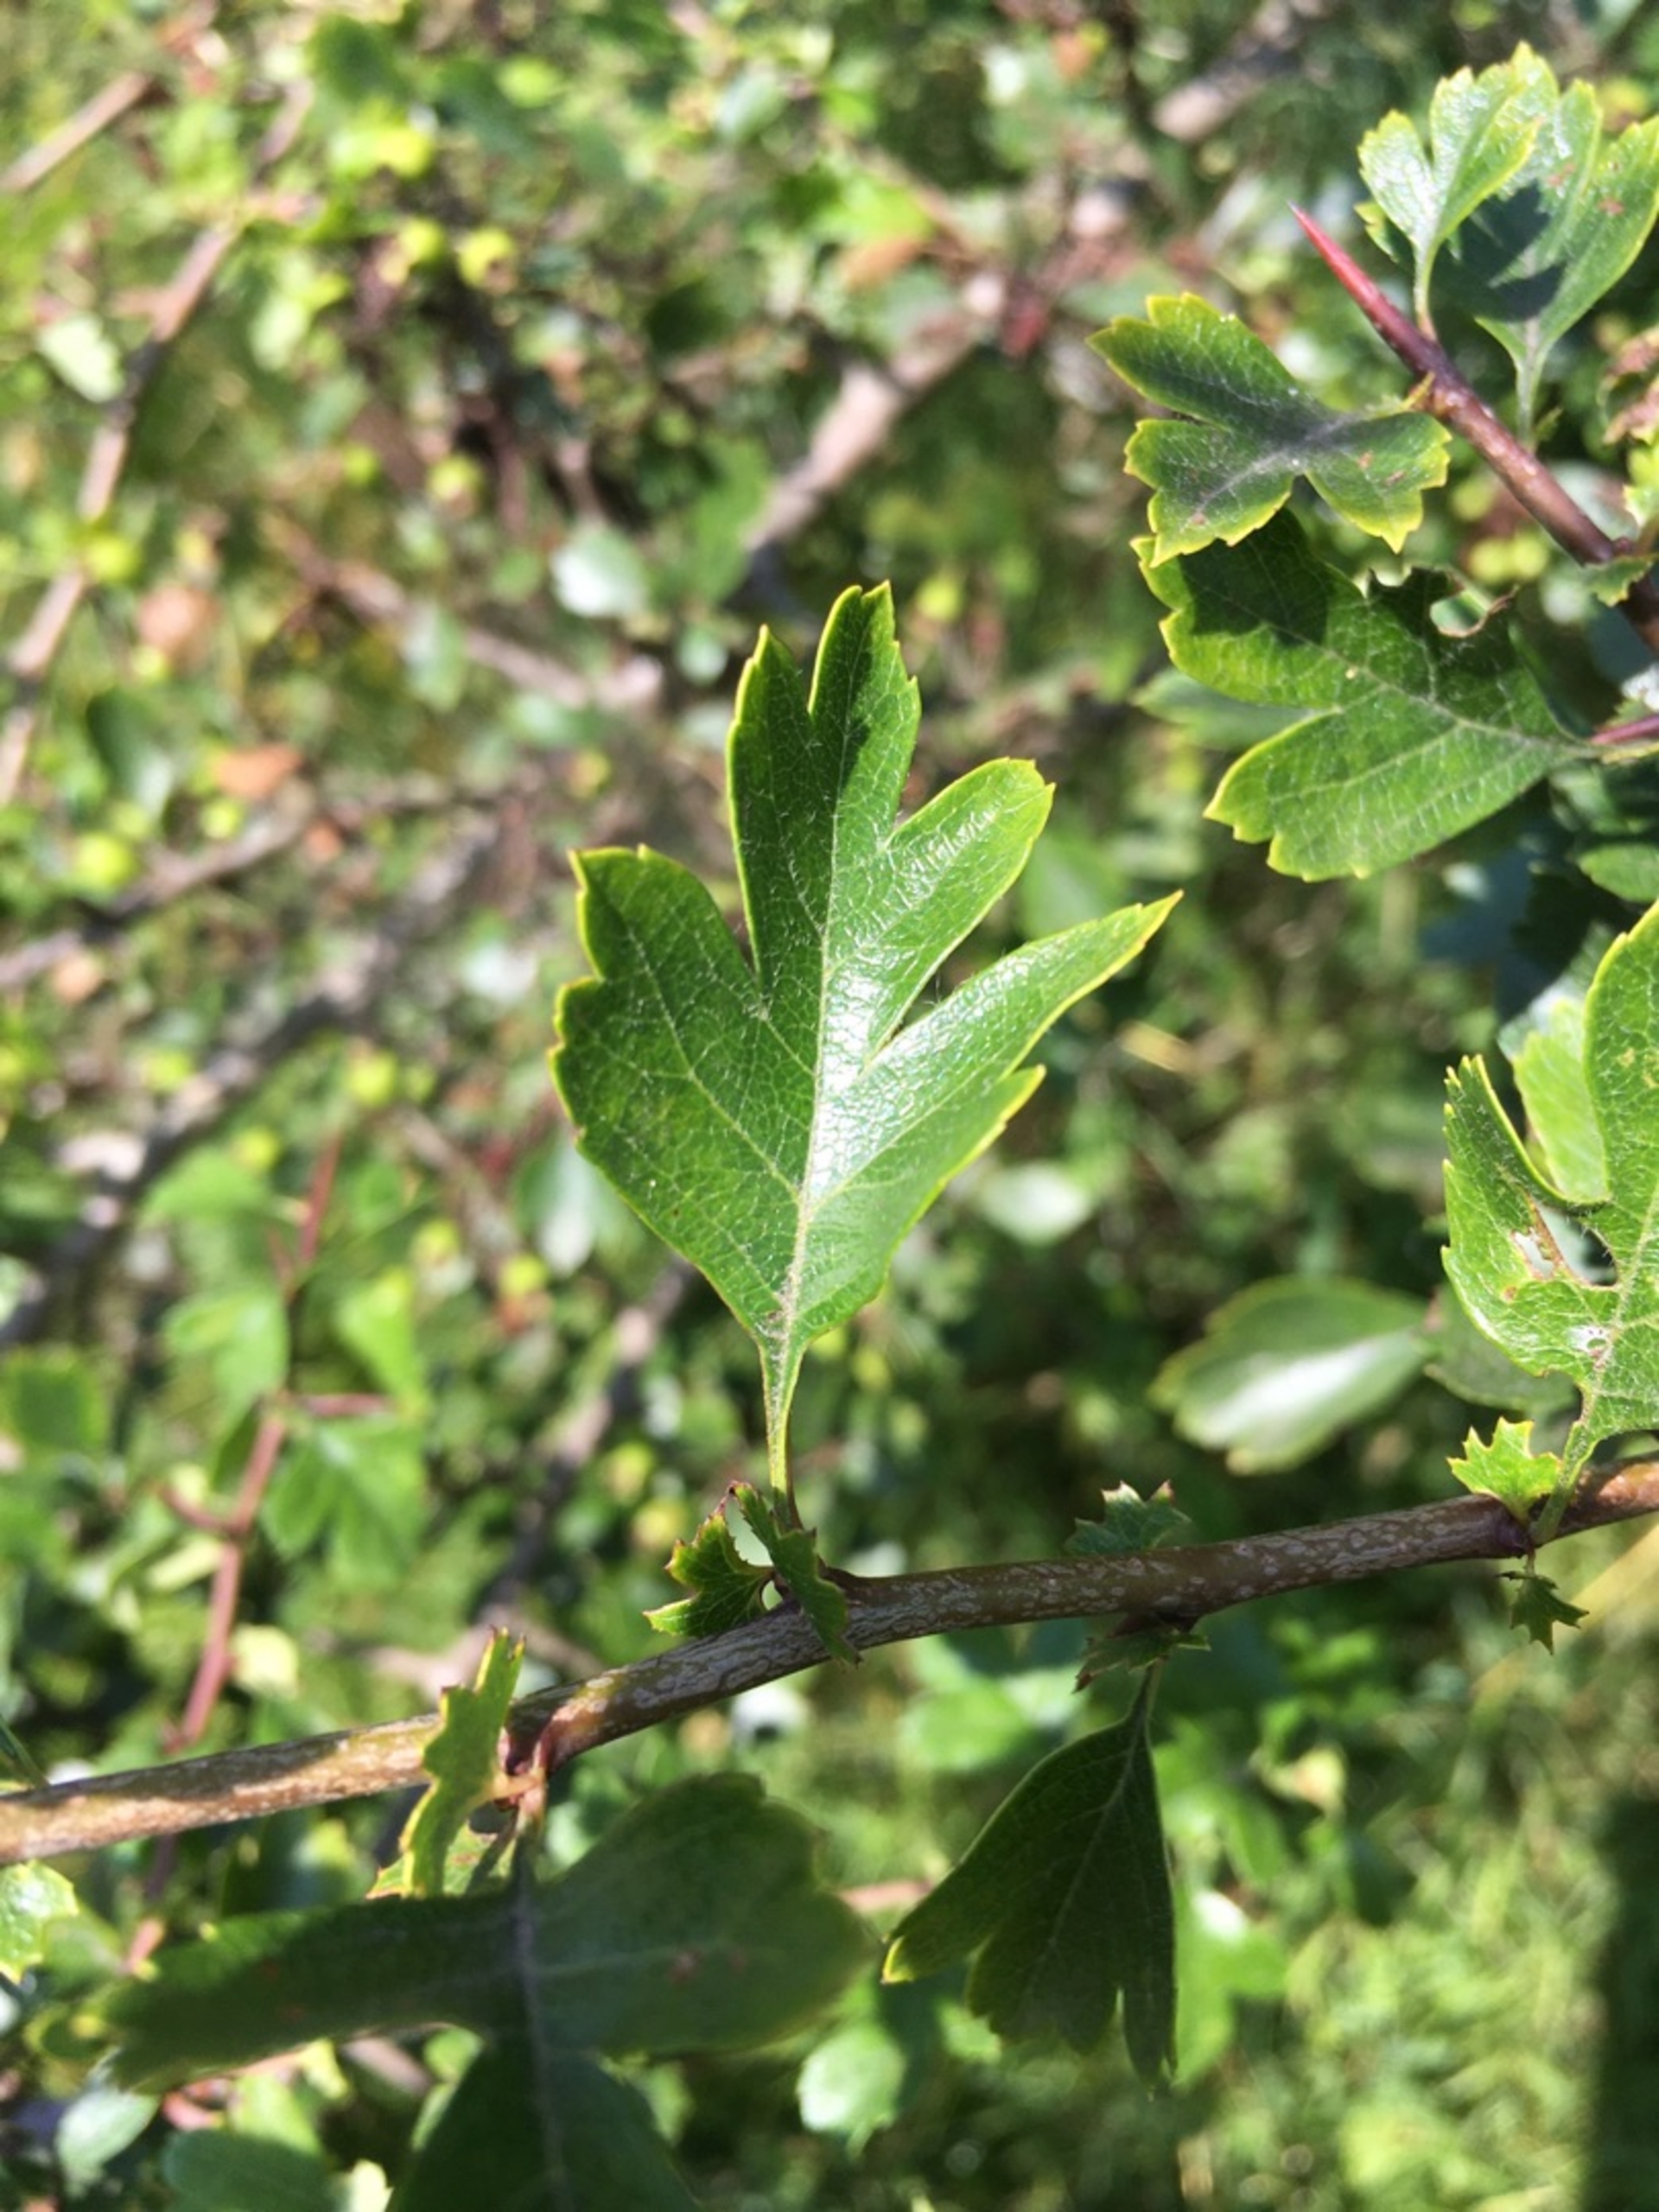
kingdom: Plantae
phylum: Tracheophyta
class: Magnoliopsida
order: Rosales
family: Rosaceae
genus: Crataegus
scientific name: Crataegus laevigata
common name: Almindelig hvidtjørn
